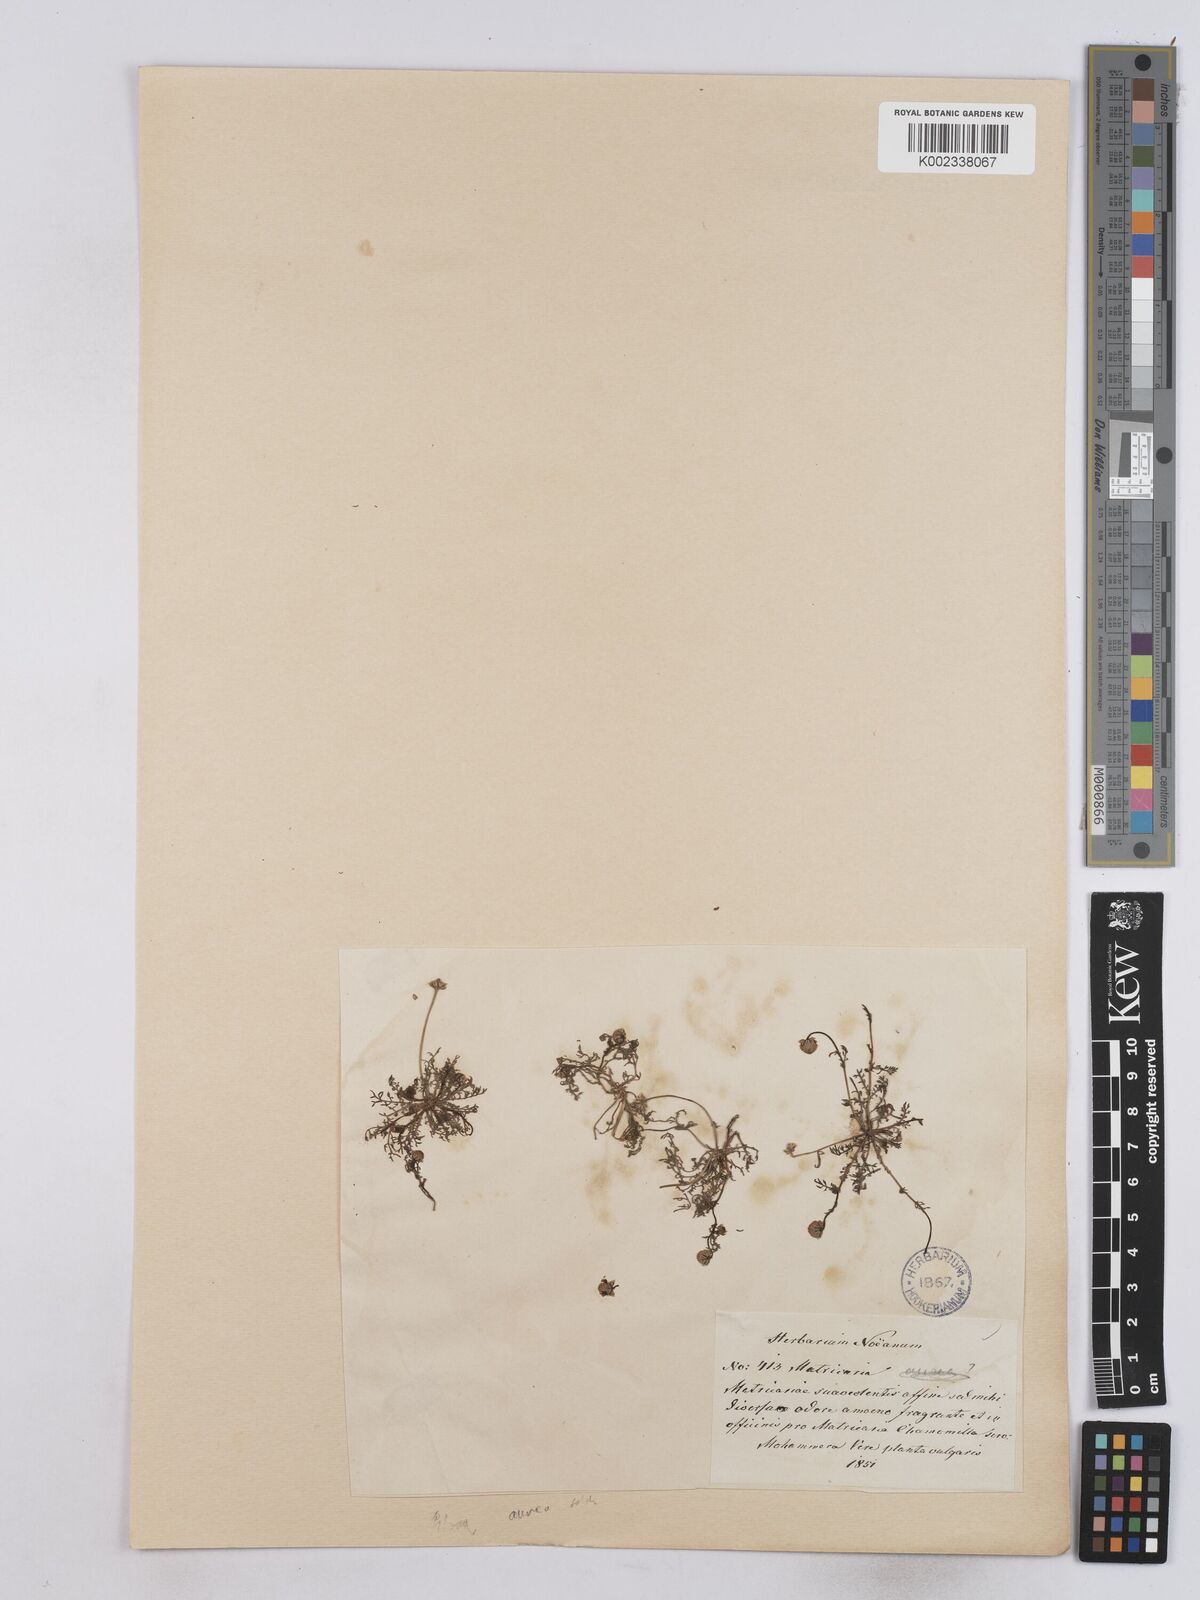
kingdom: Plantae
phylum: Tracheophyta
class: Magnoliopsida
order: Asterales
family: Asteraceae
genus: Matricaria
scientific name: Matricaria aurea
